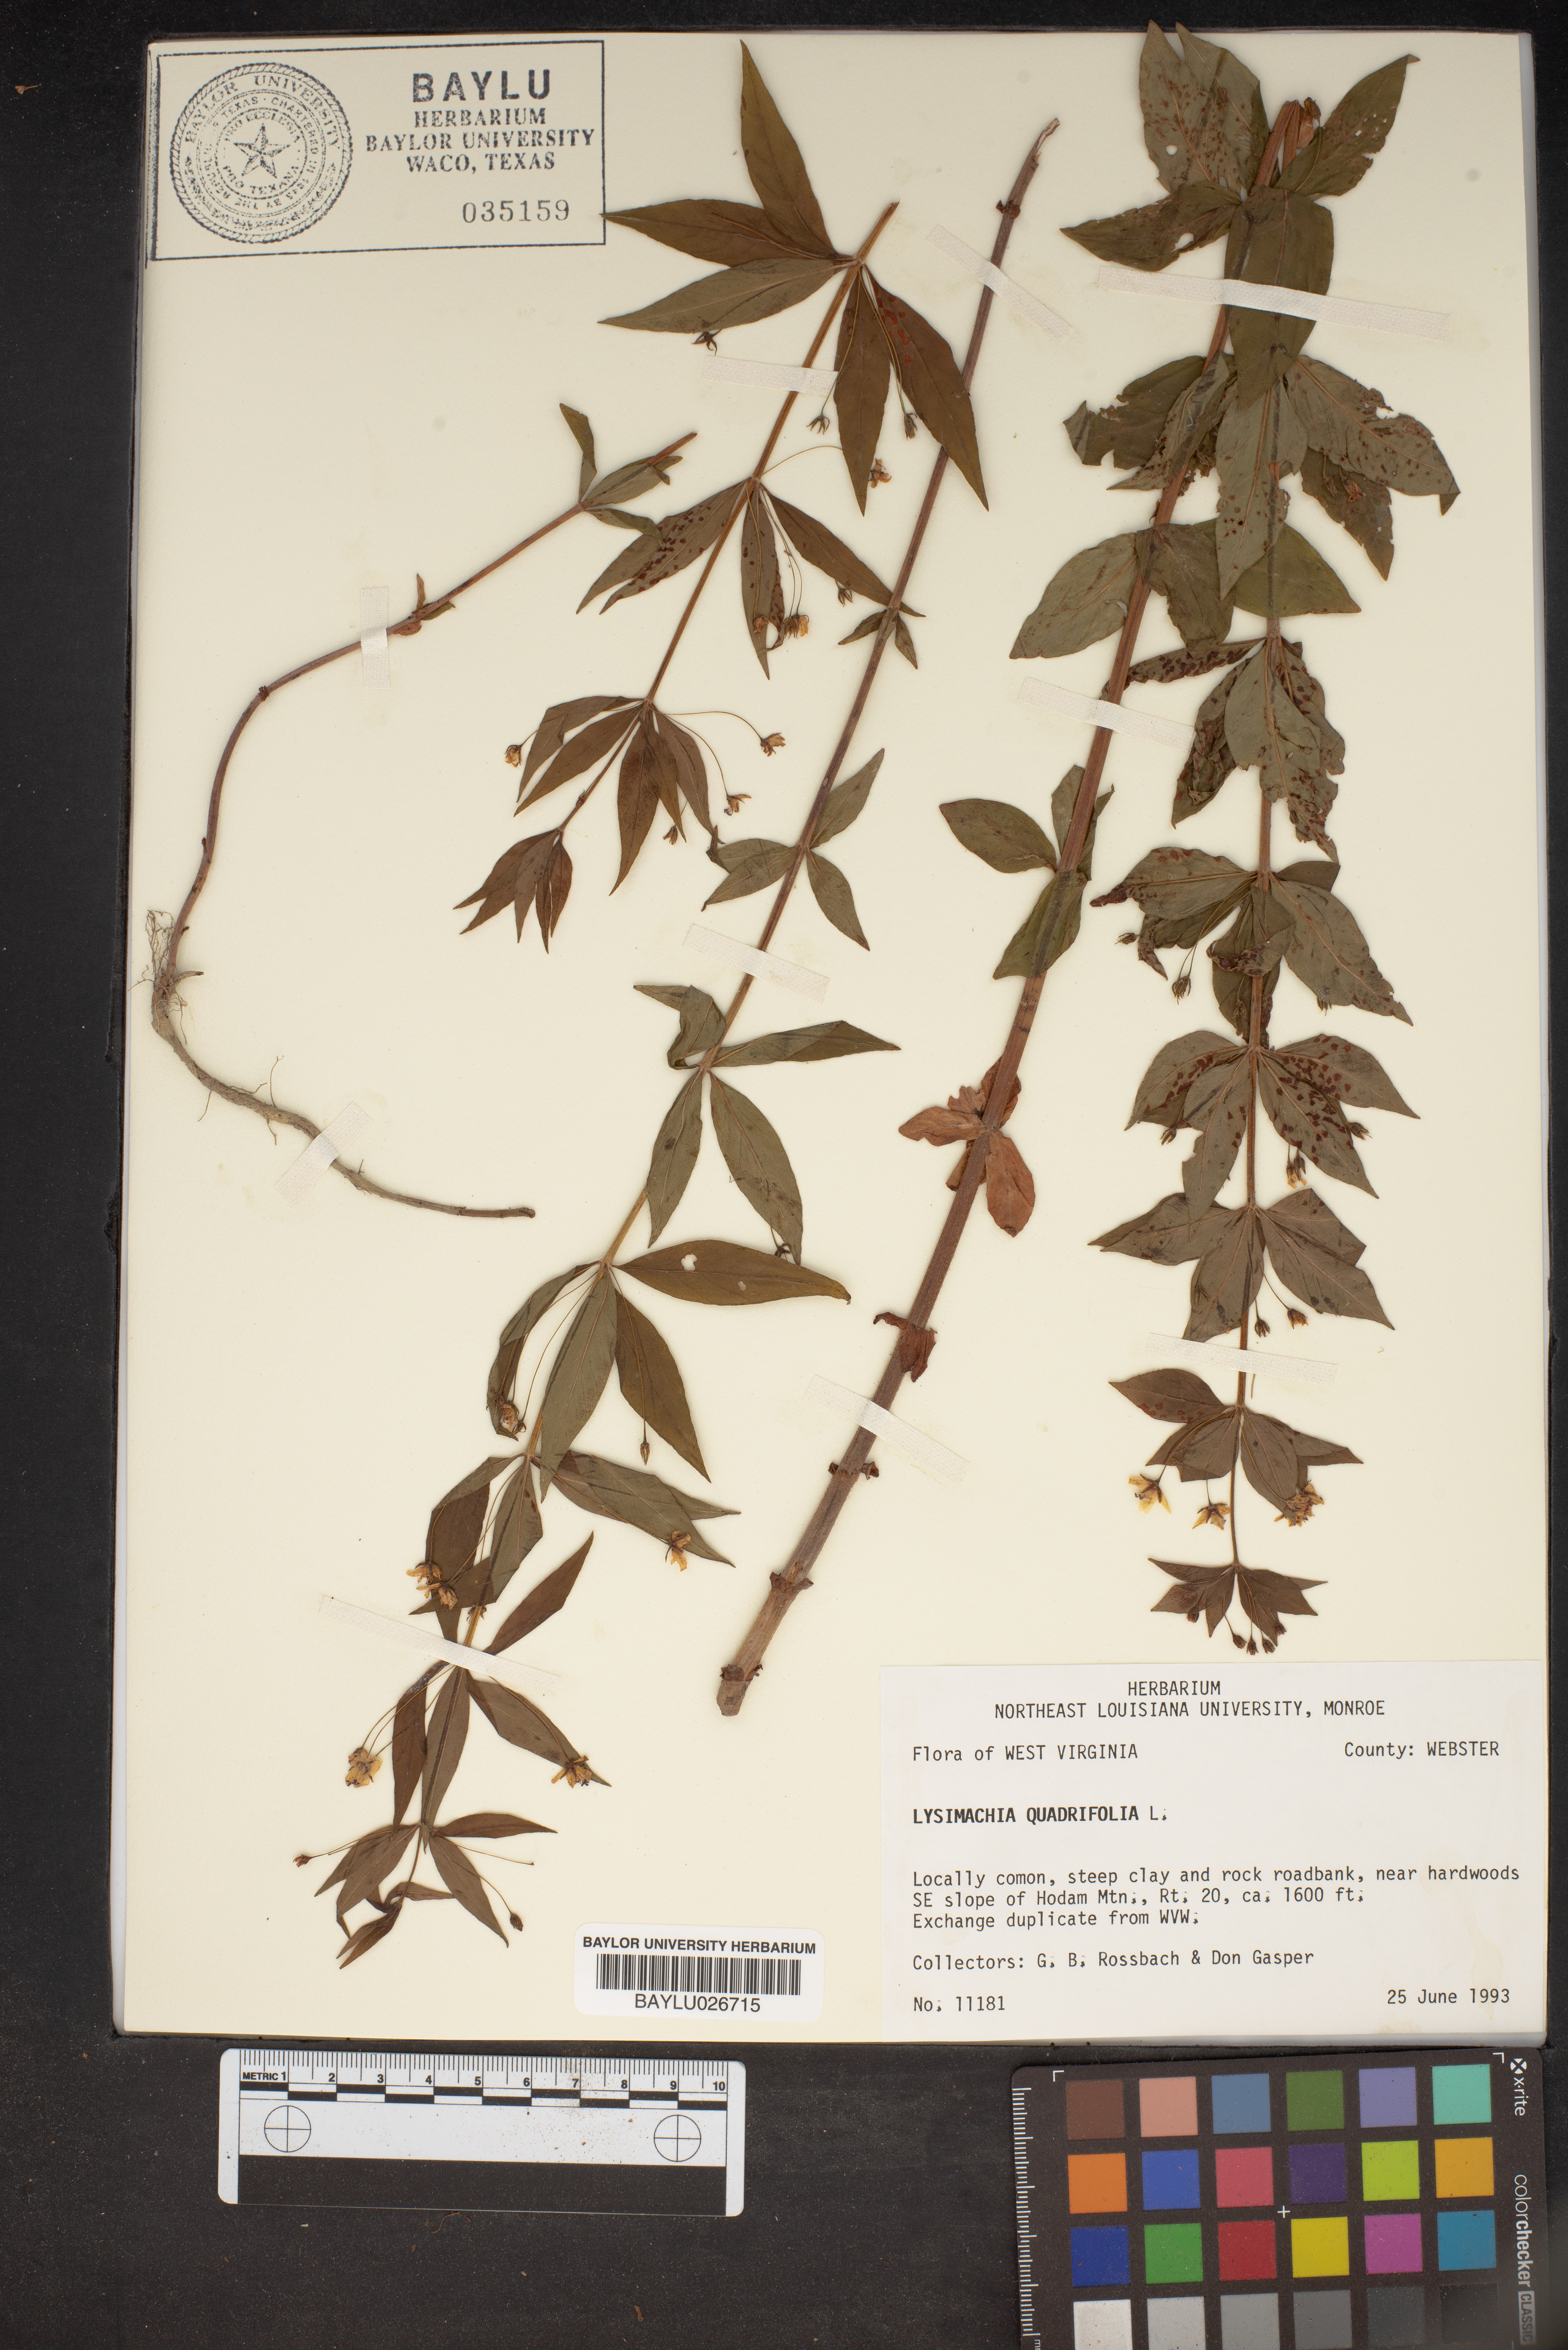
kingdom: Plantae
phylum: Tracheophyta
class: Magnoliopsida
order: Ericales
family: Primulaceae
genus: Lysimachia
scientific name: Lysimachia quadrifolia
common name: Whorled loosestrife
